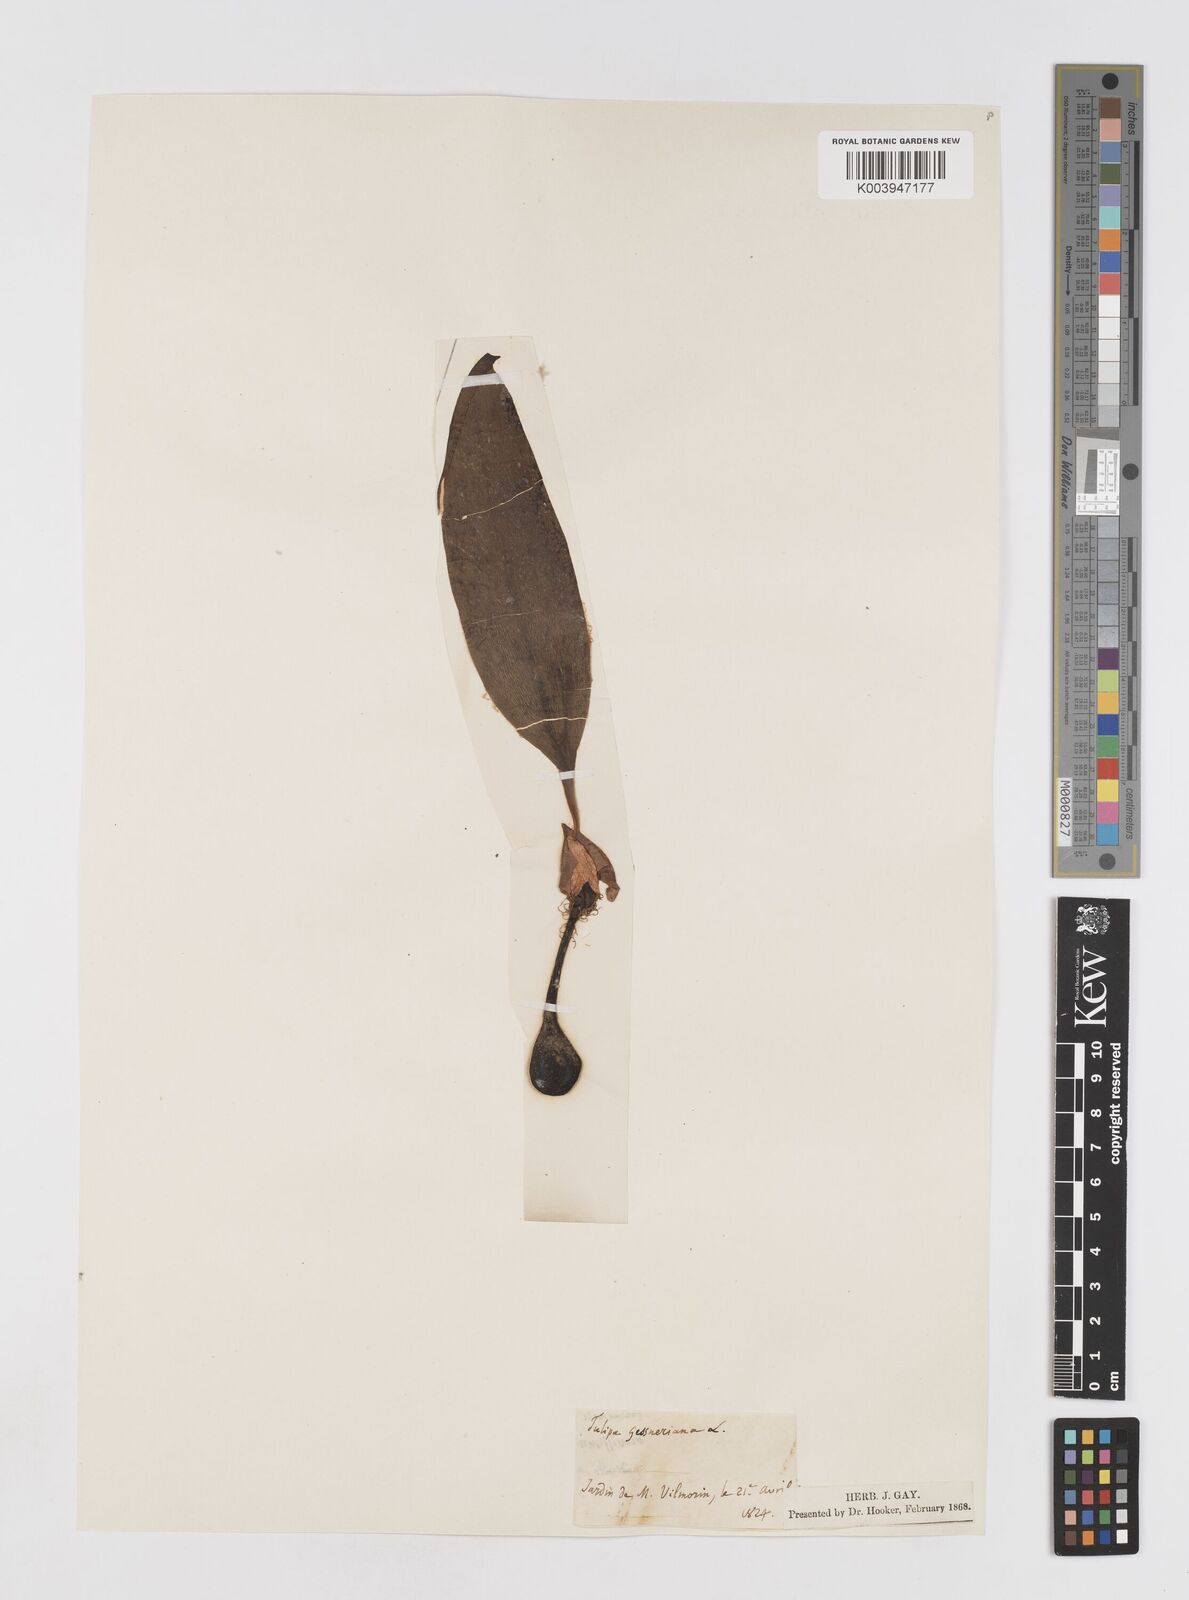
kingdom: Plantae
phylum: Tracheophyta
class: Liliopsida
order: Liliales
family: Liliaceae
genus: Tulipa
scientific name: Tulipa gesneriana
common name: Garden tulip
